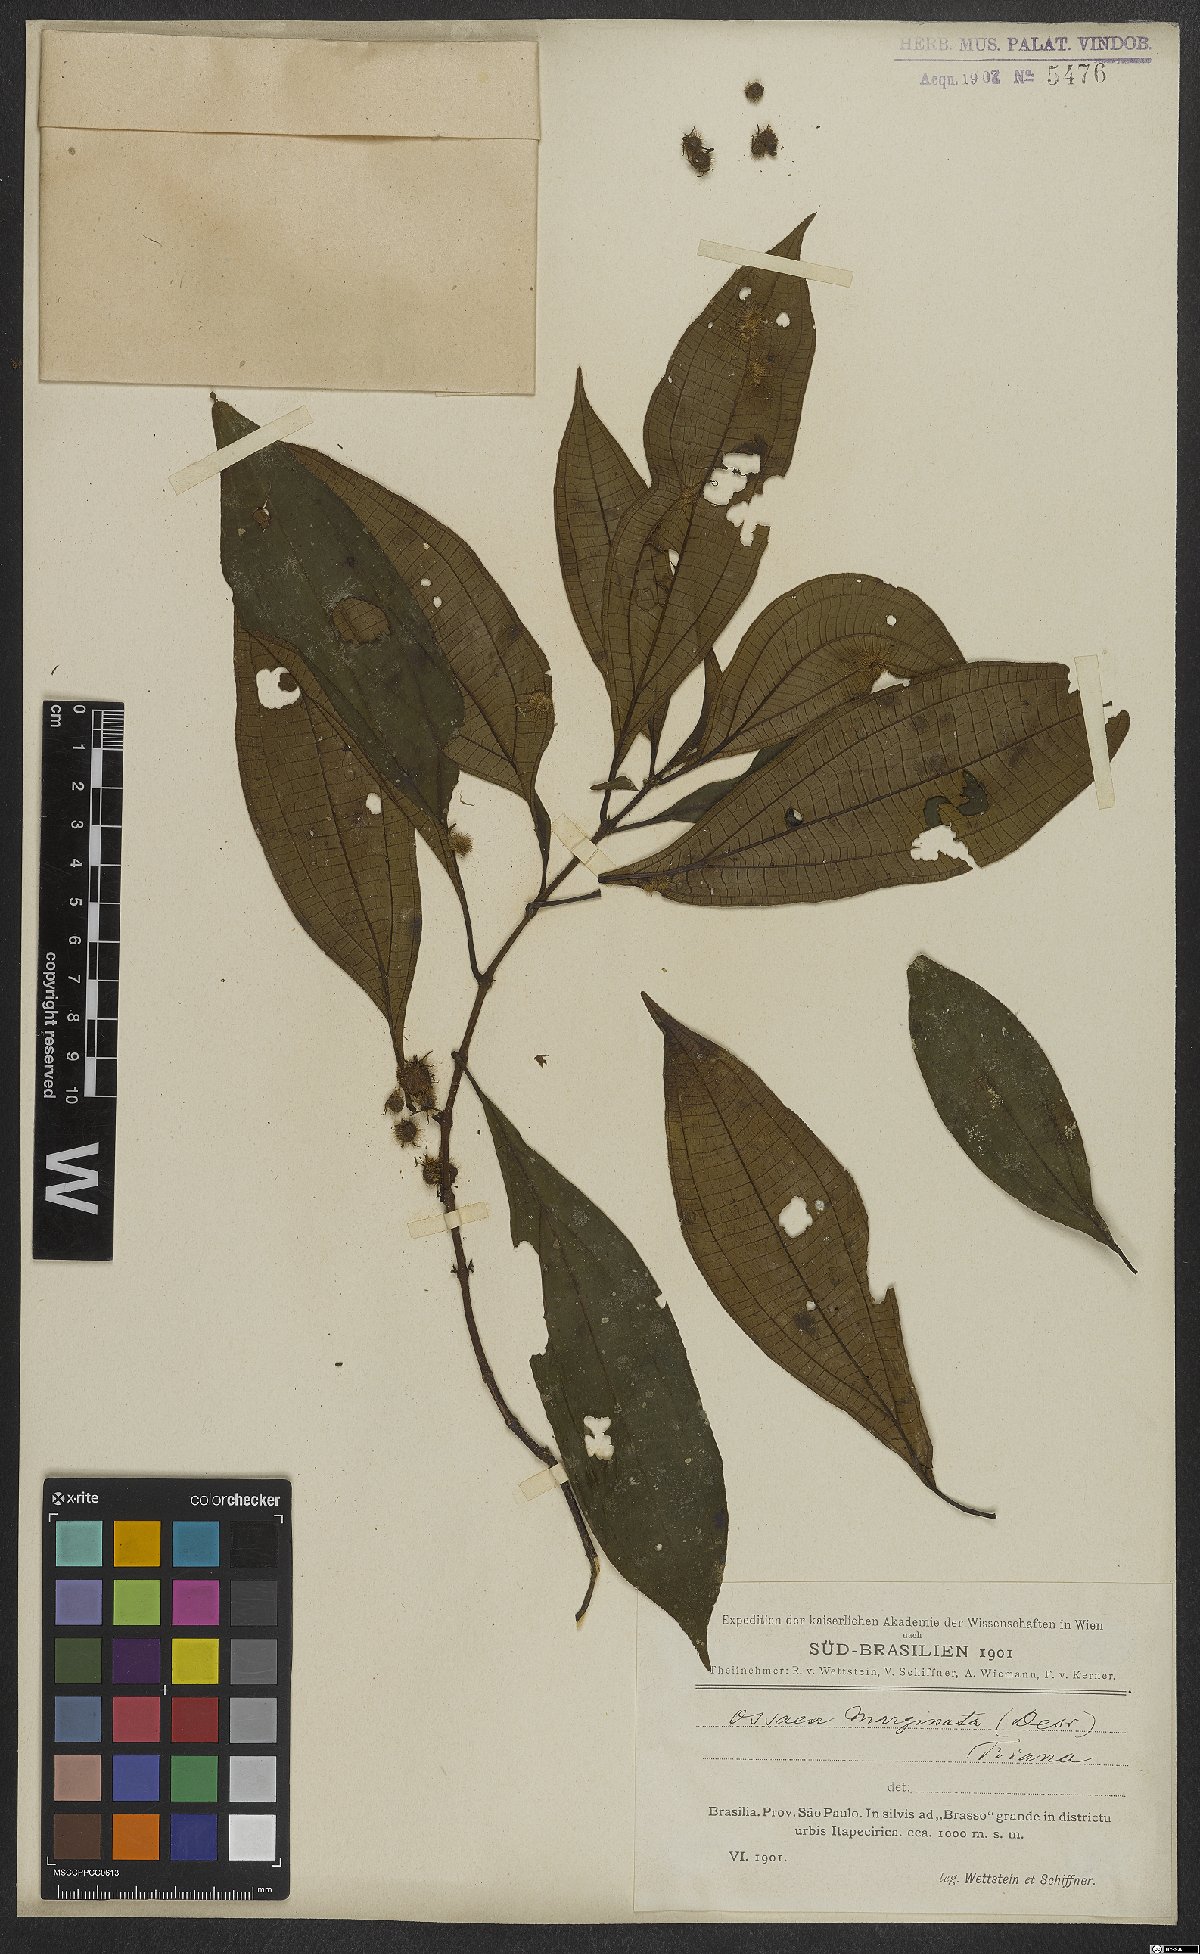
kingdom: Plantae
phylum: Tracheophyta
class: Magnoliopsida
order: Myrtales
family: Melastomataceae
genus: Miconia
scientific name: Miconia leamarginata
